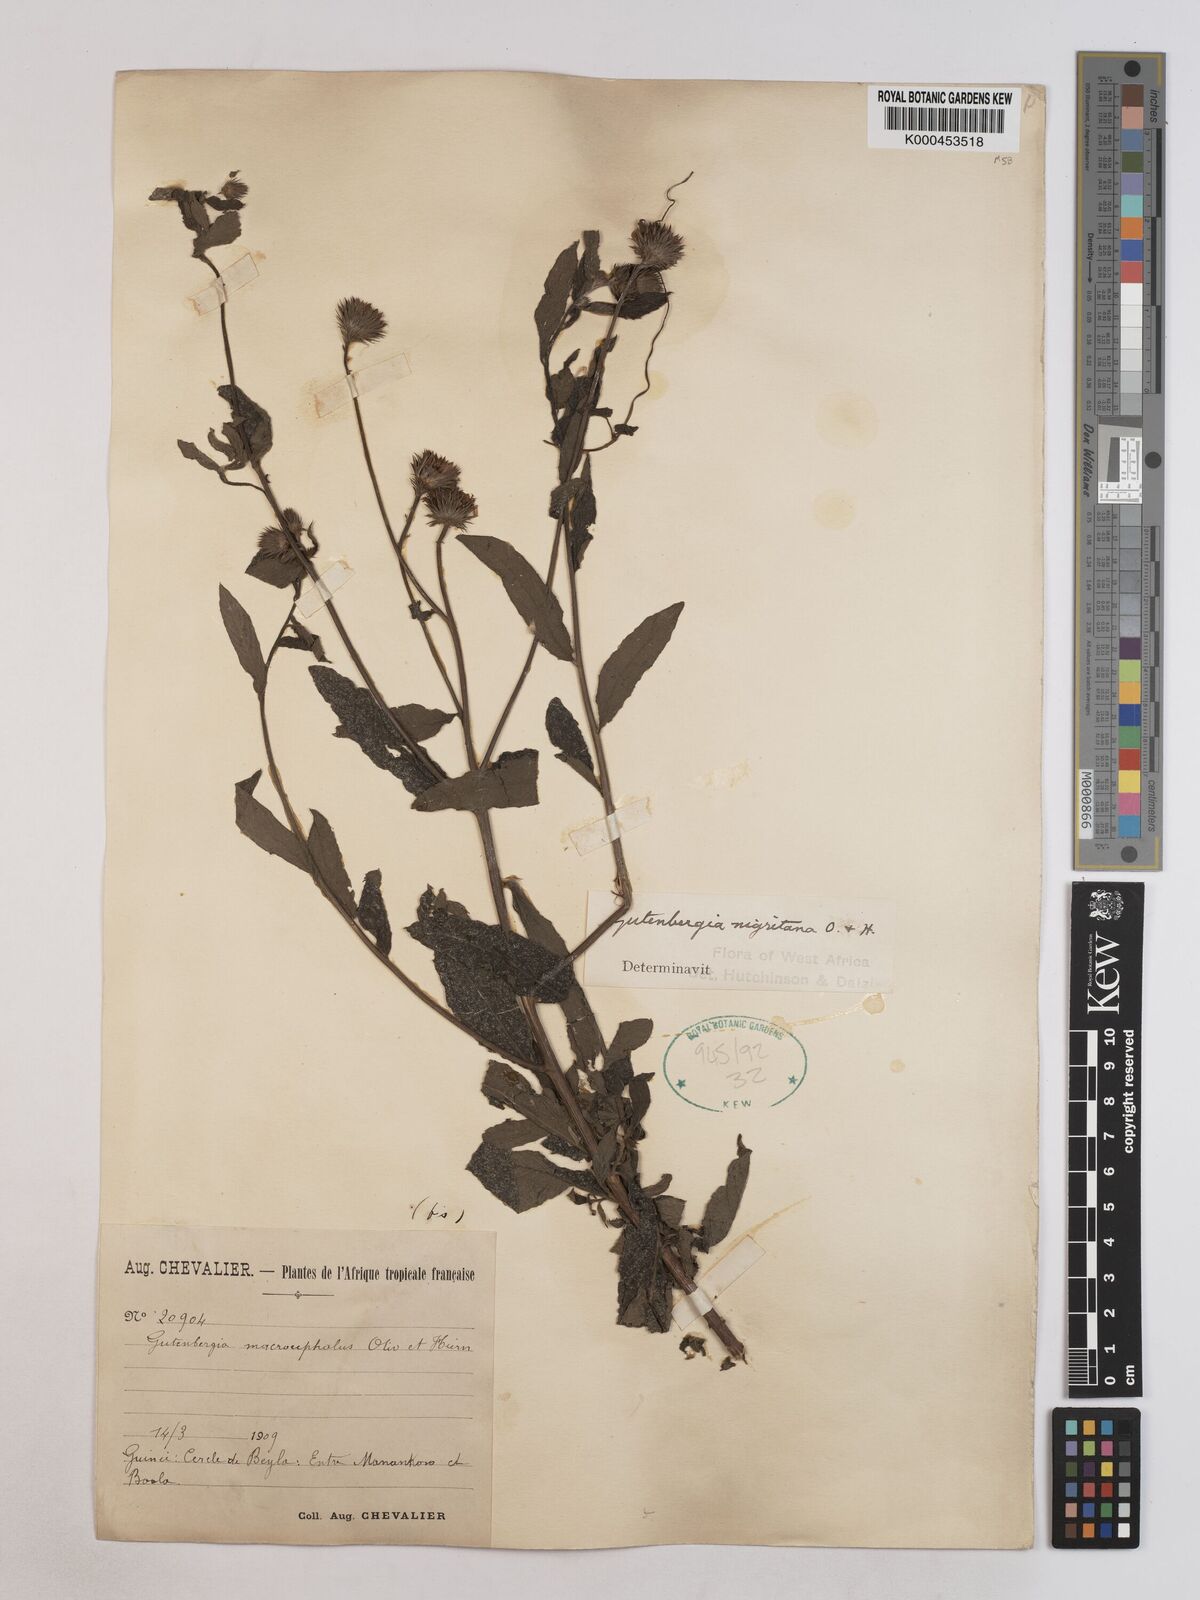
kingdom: Plantae
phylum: Tracheophyta
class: Magnoliopsida
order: Asterales
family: Asteraceae
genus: Kinghamia
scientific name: Kinghamia nigritana
